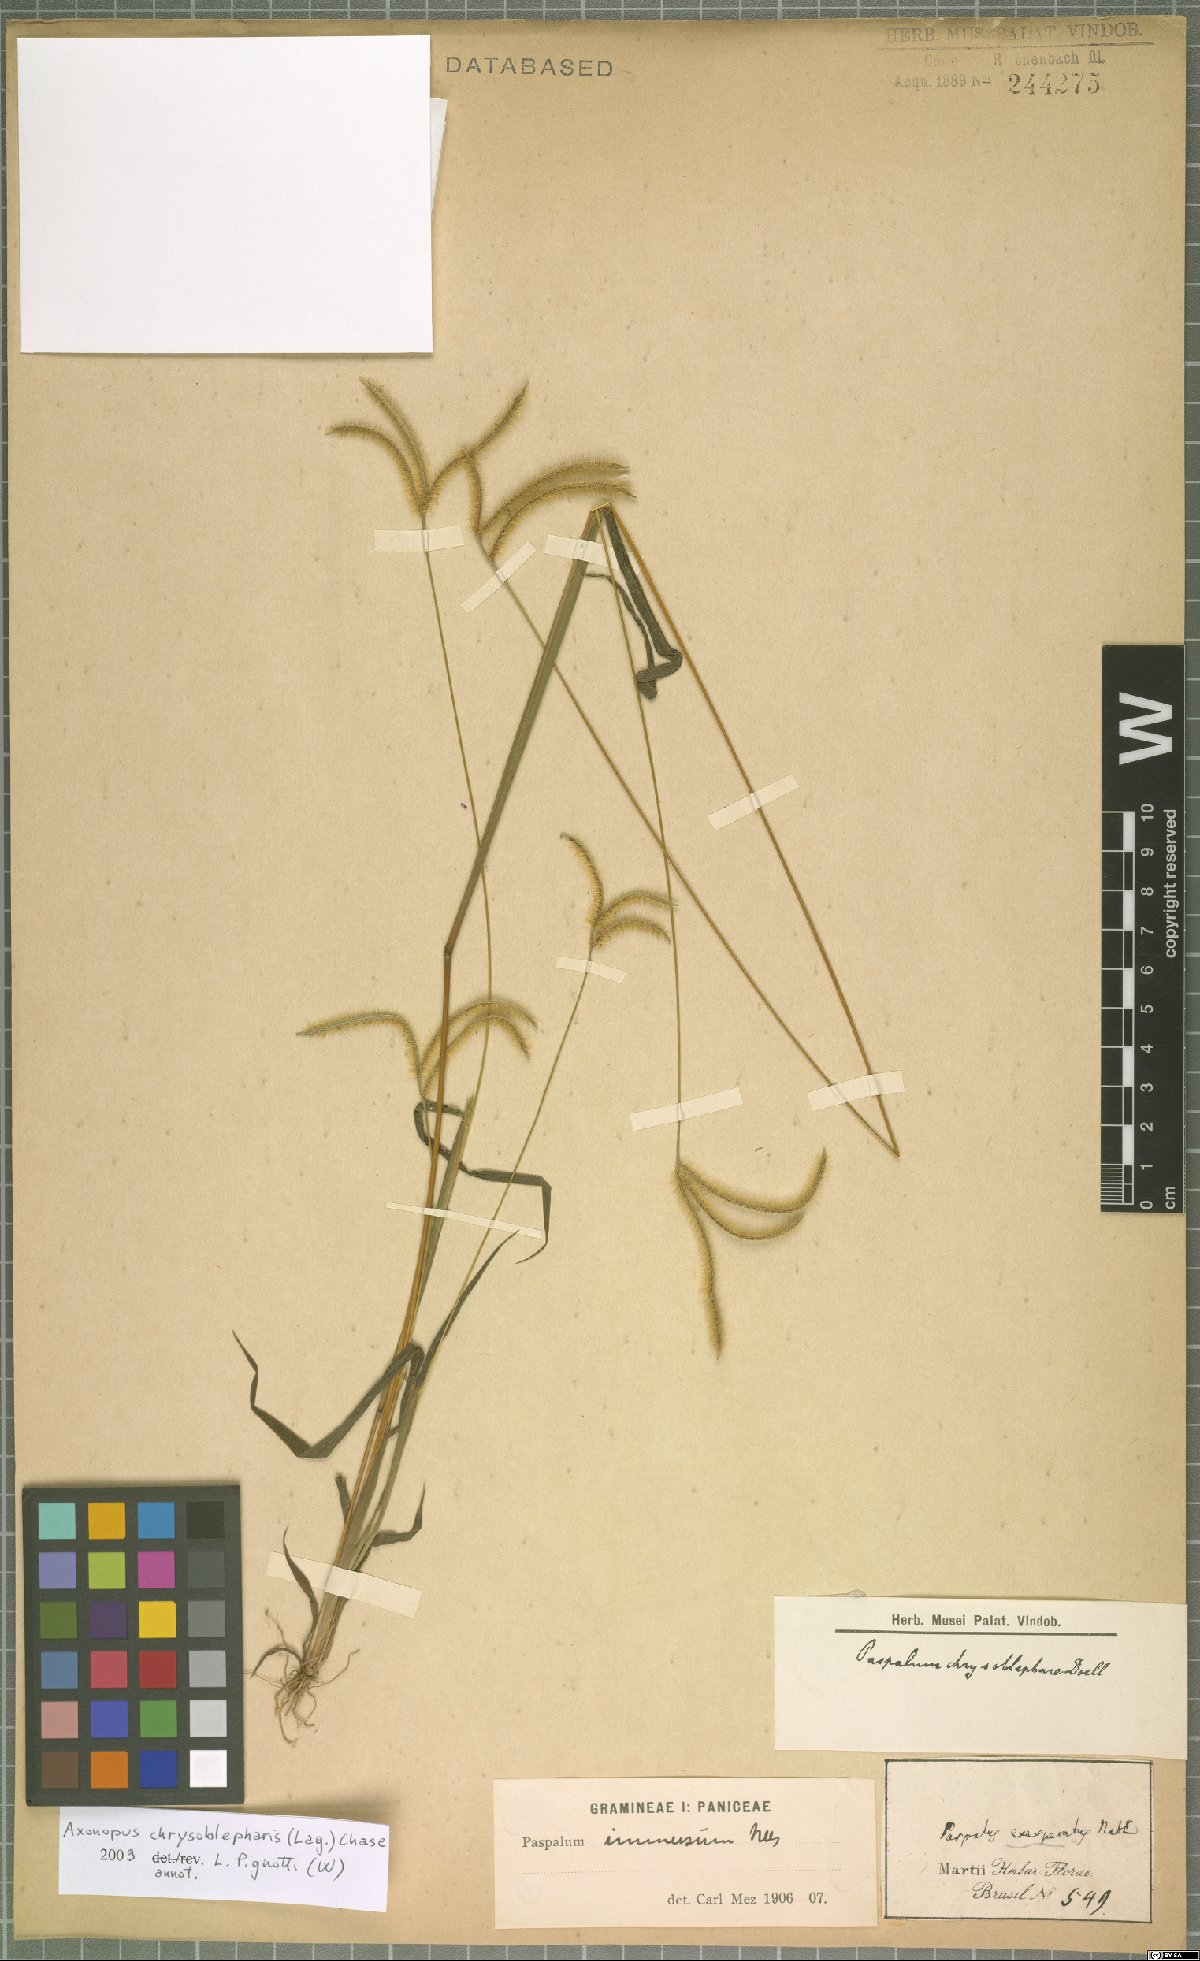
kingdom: Plantae
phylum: Tracheophyta
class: Liliopsida
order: Poales
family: Poaceae
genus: Axonopus
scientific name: Axonopus chrysoblepharis
